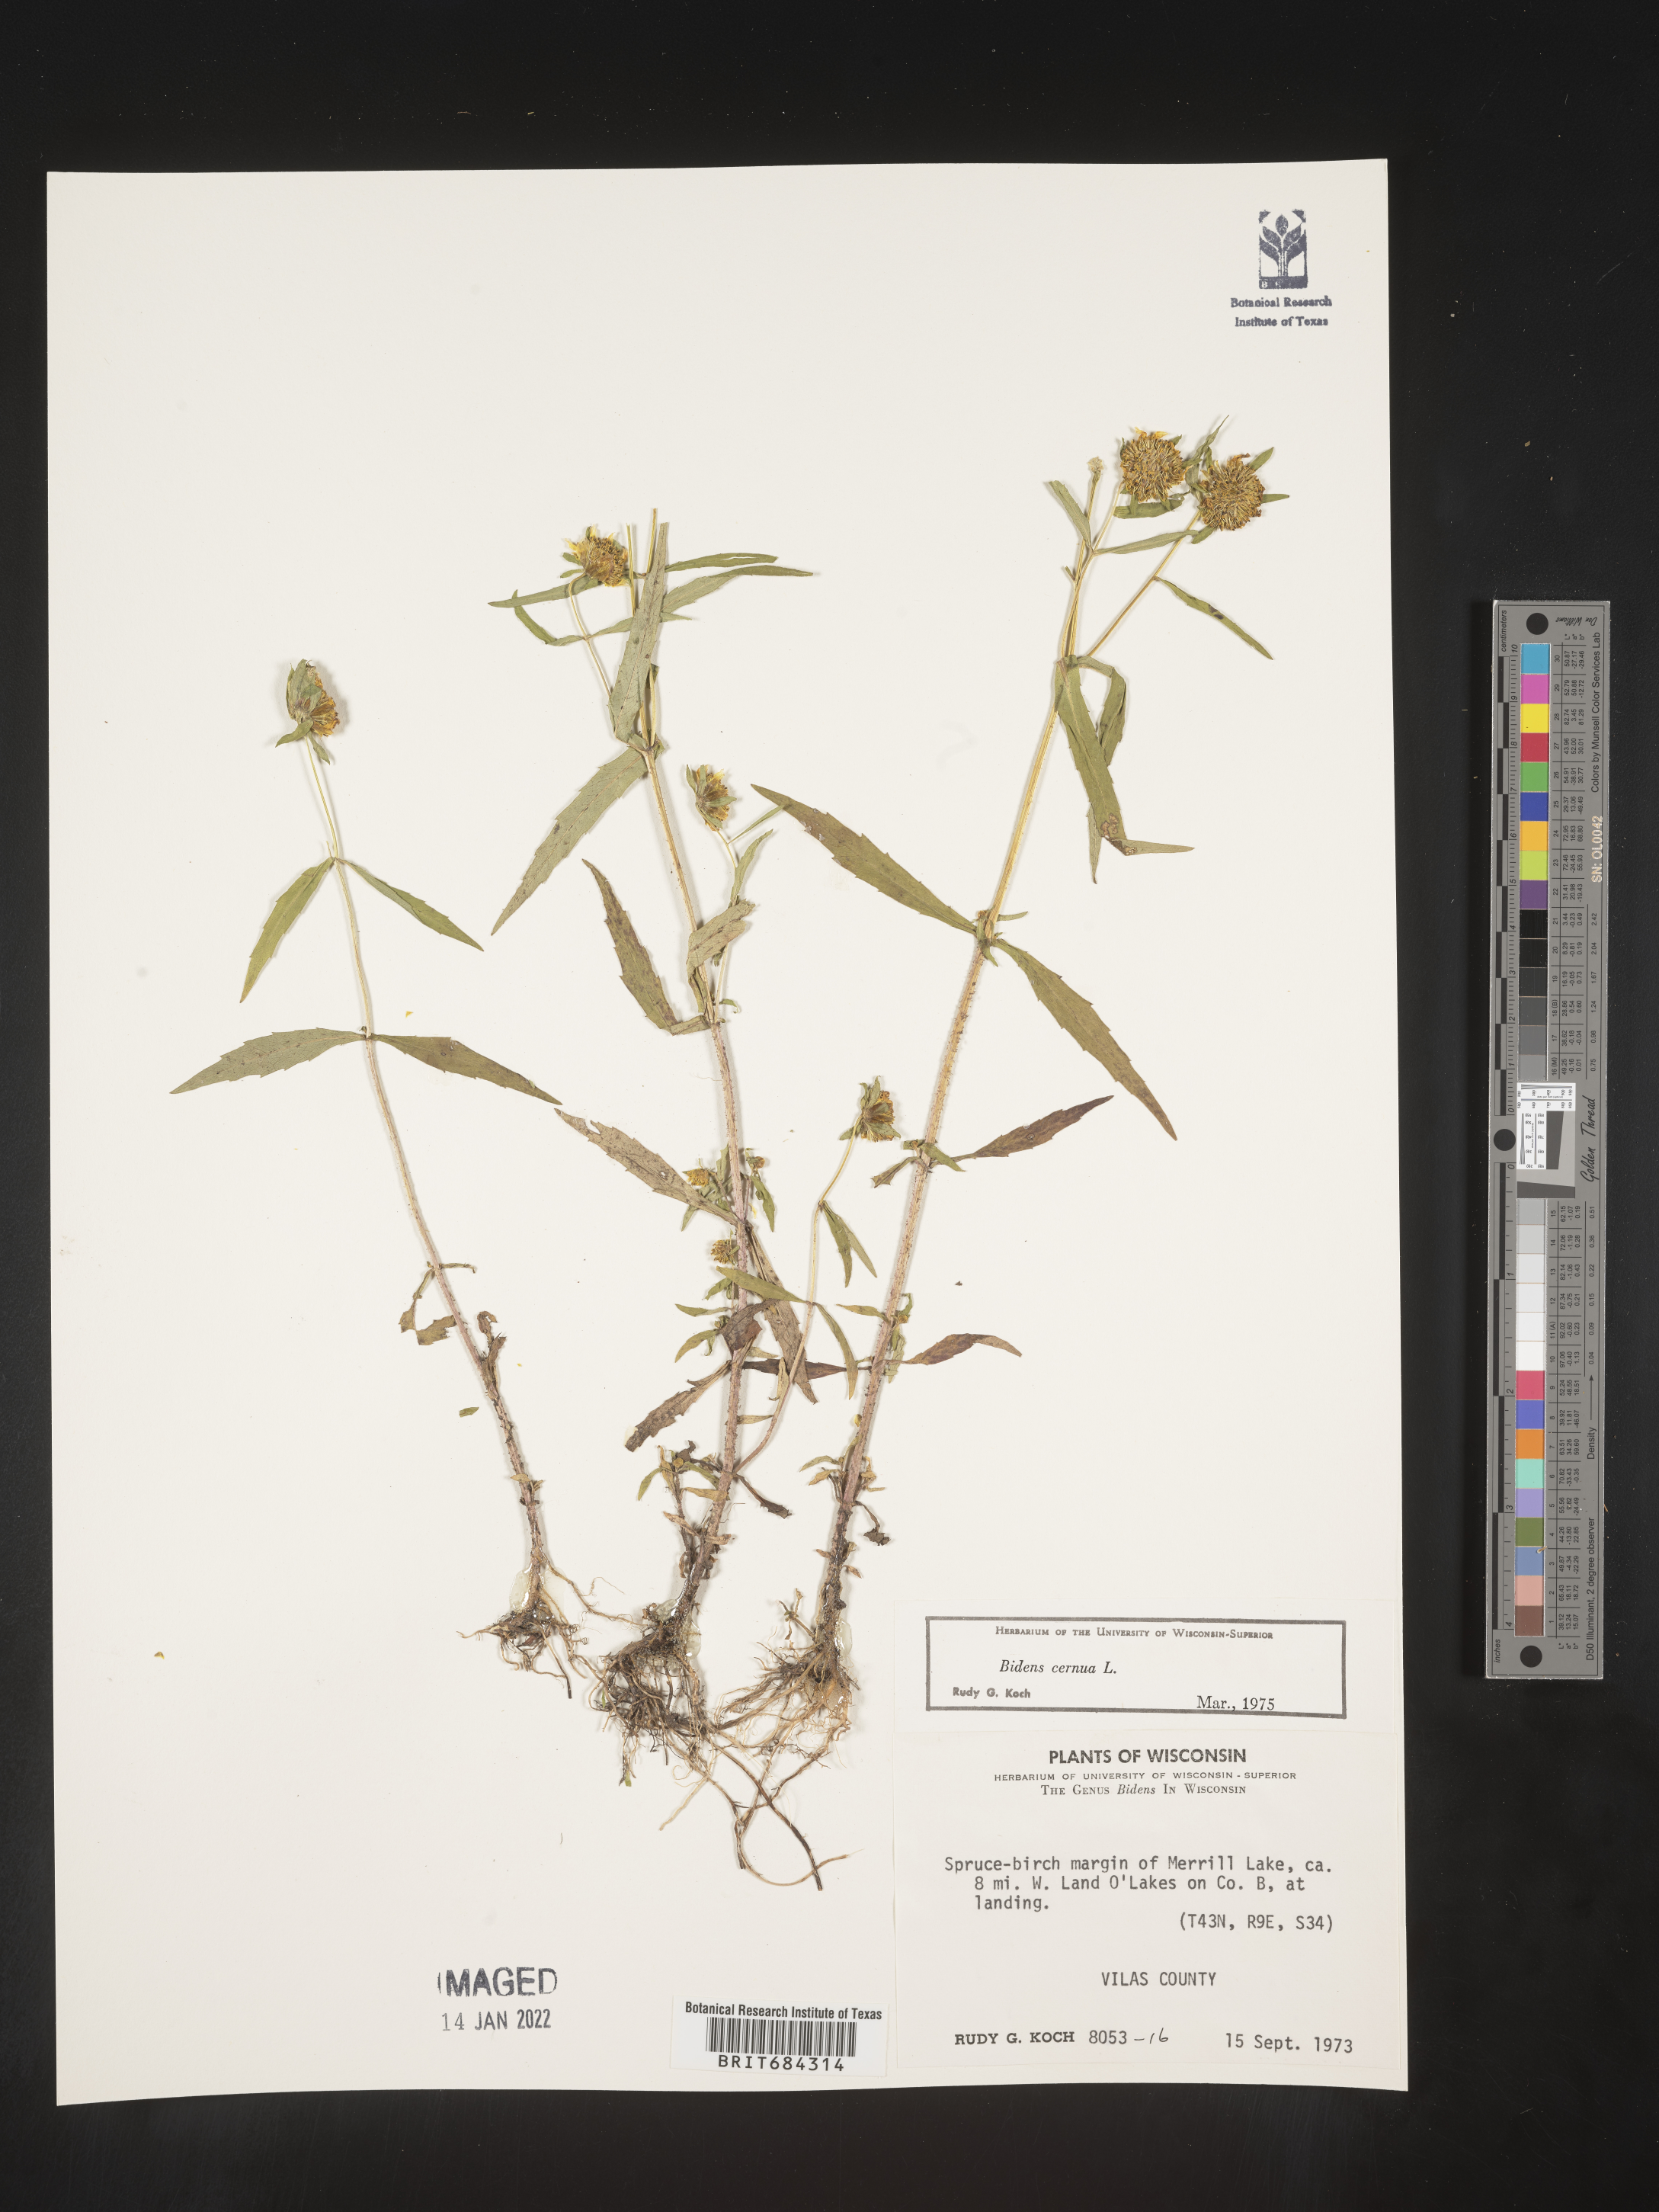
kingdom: Plantae
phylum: Tracheophyta
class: Magnoliopsida
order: Asterales
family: Asteraceae
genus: Bidens
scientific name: Bidens cernua
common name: Nodding bur-marigold
